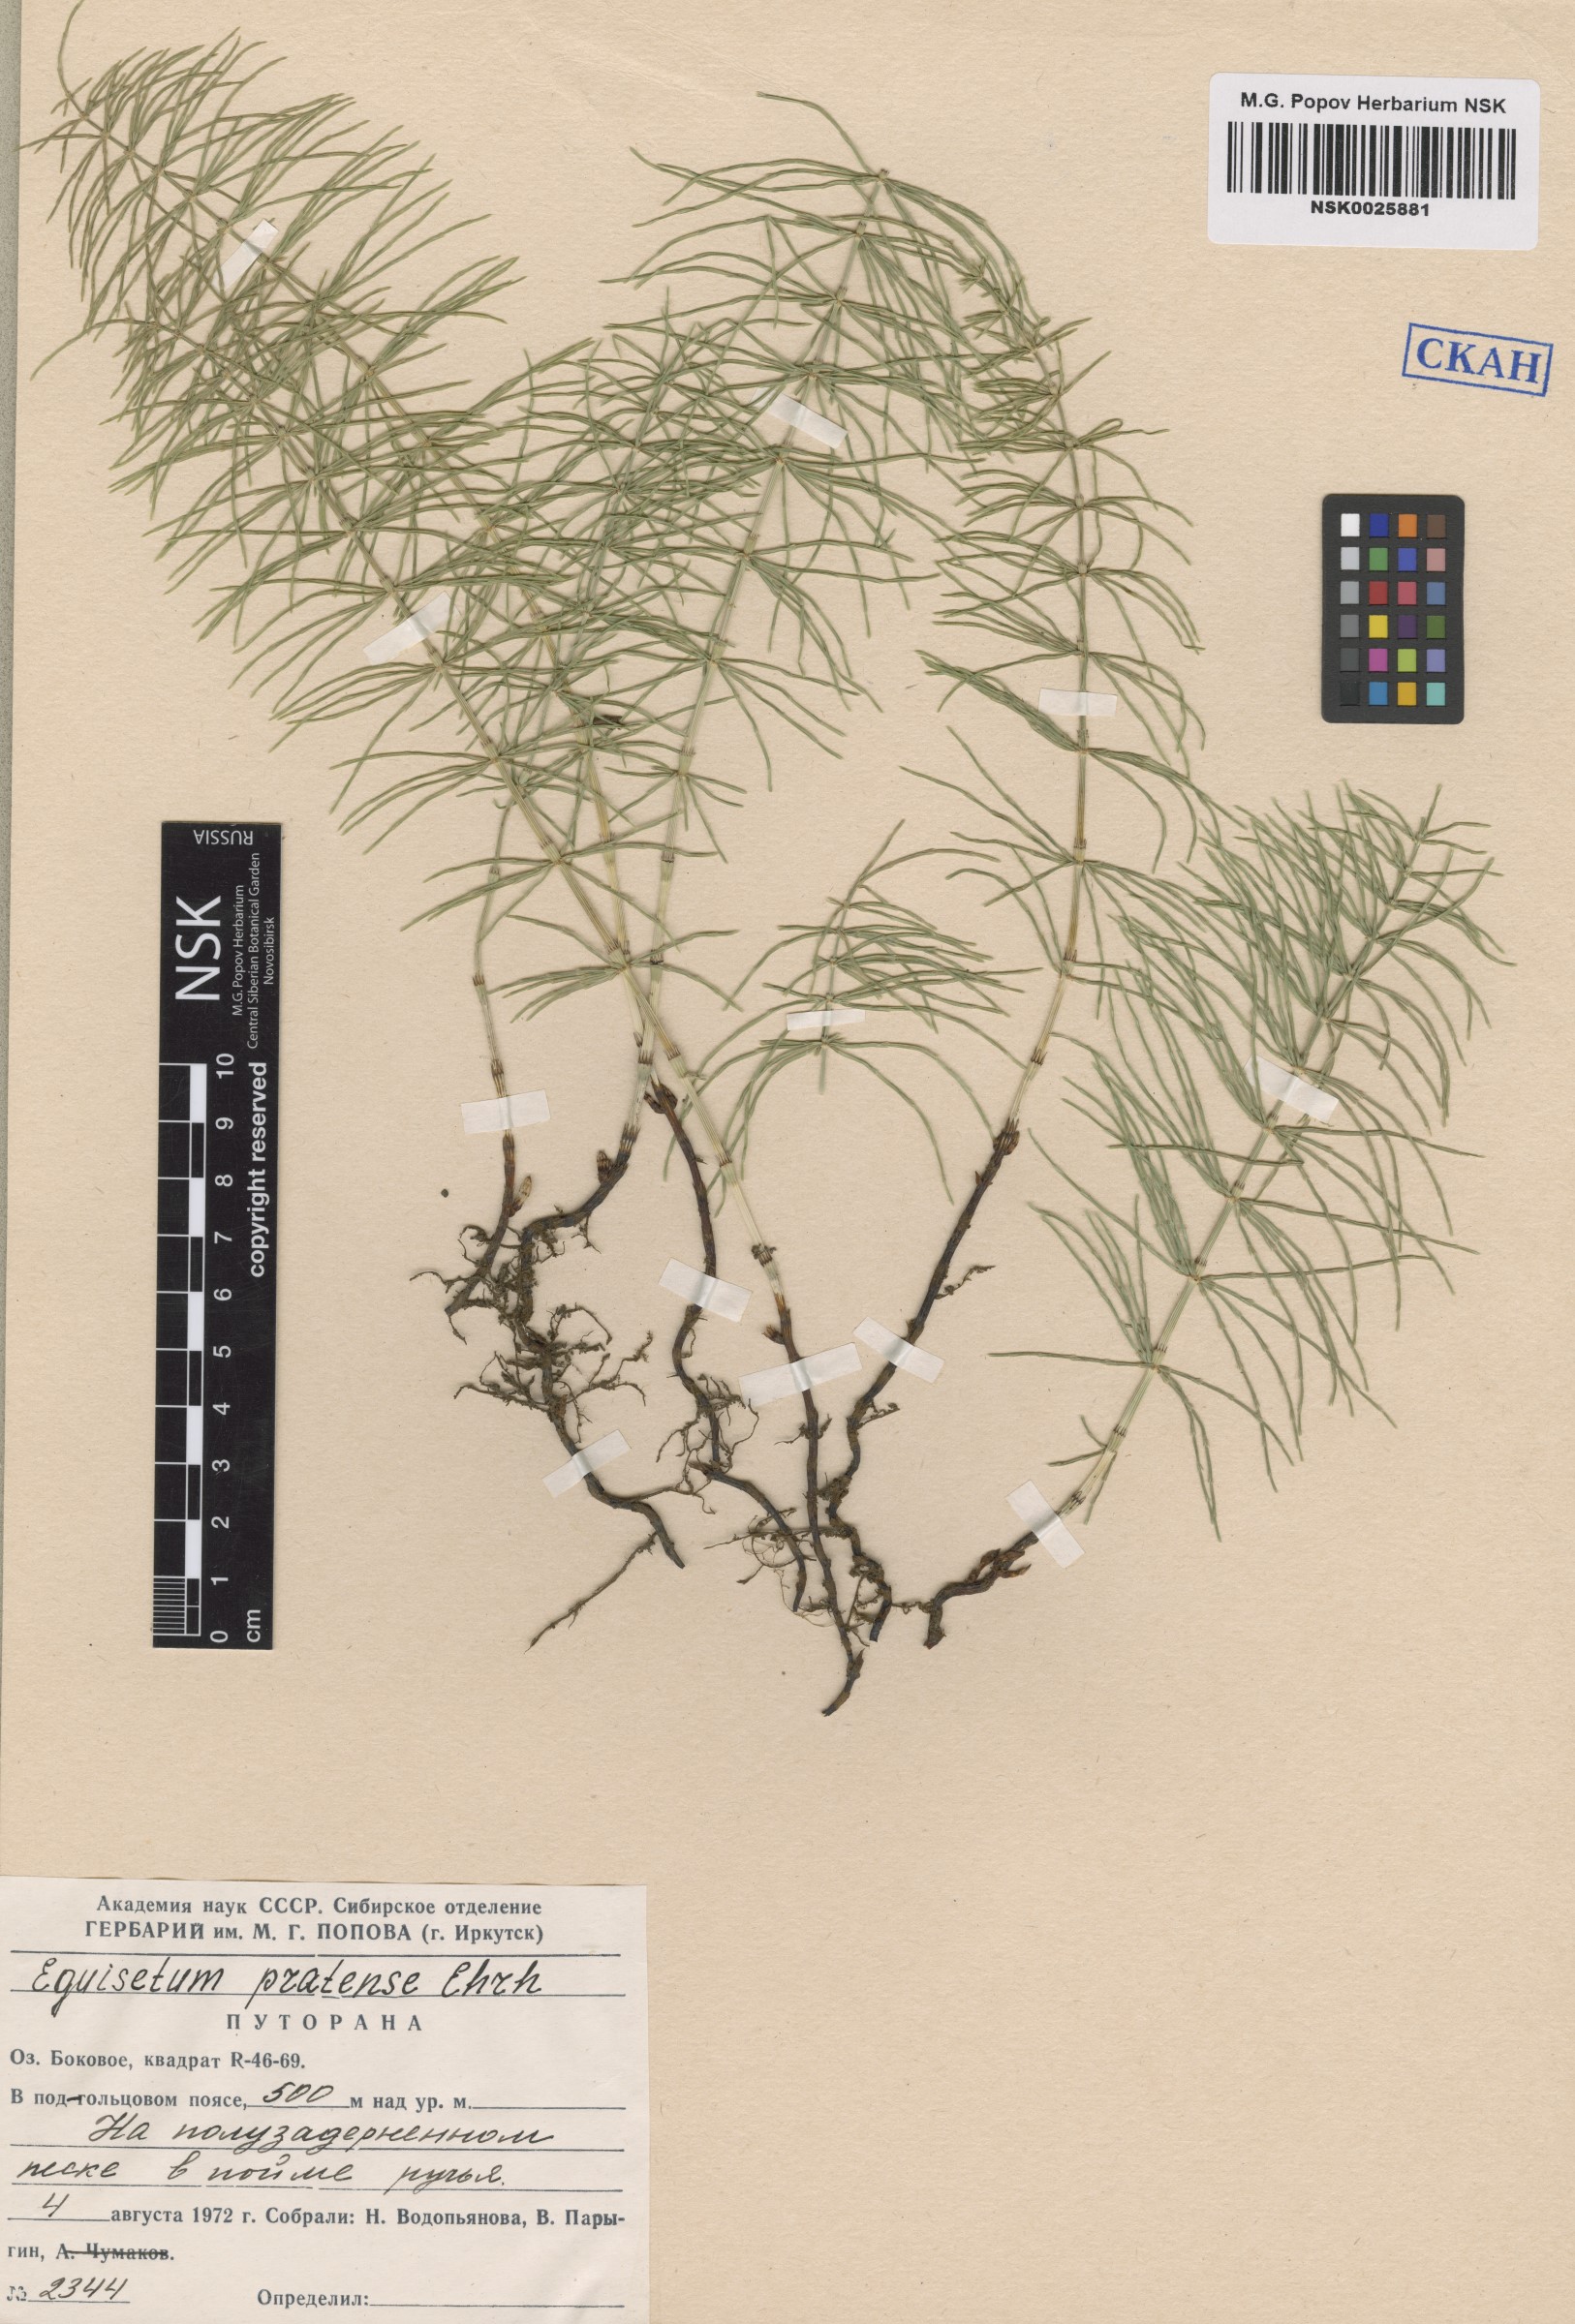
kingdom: Plantae
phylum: Tracheophyta
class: Polypodiopsida
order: Equisetales
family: Equisetaceae
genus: Equisetum
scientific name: Equisetum pratense
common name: Meadow horsetail
